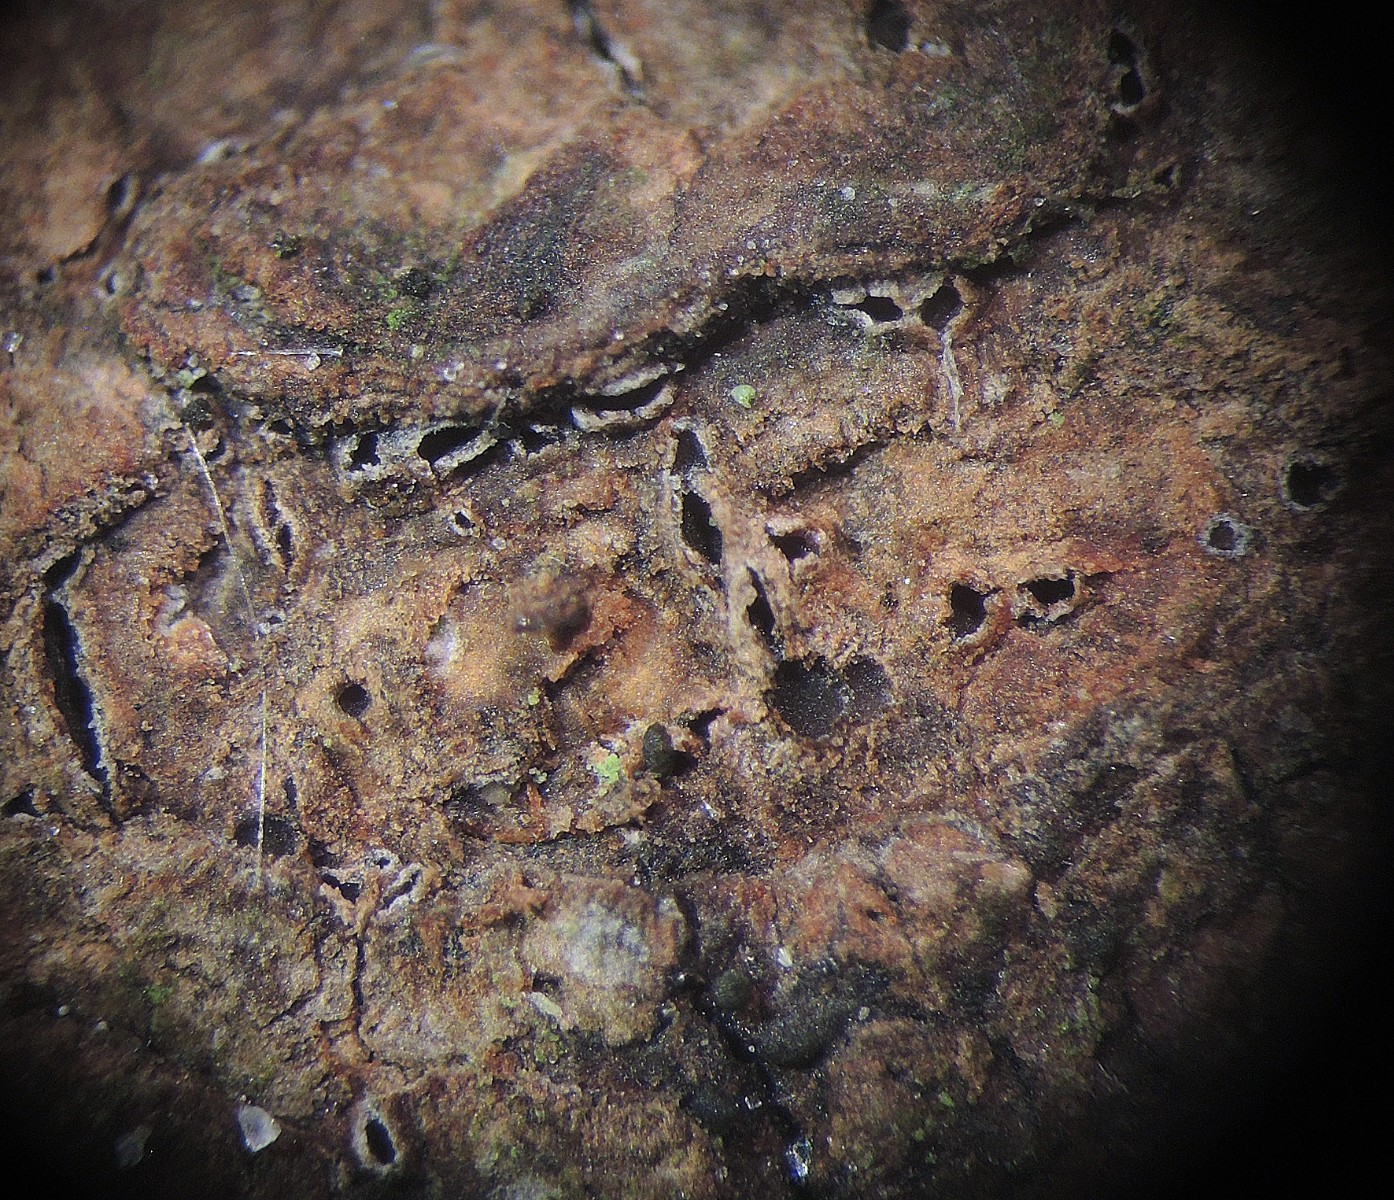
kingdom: Fungi
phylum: Ascomycota
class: Lecanoromycetes
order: Ostropales
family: Stictidaceae
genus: Cryptodiscus
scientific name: Cryptodiscus foveolaris
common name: ellipse-barkhul
